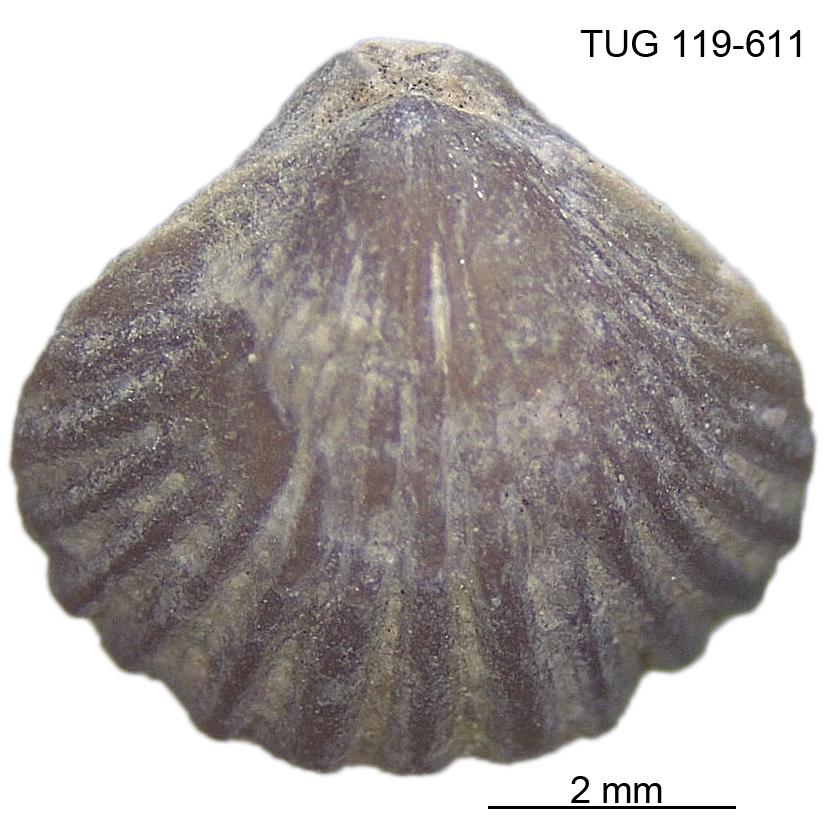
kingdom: Animalia
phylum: Brachiopoda
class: Rhynchonellata
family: Rhynchospirinidae
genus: Homoeospira
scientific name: Homoeospira Terebratula baylei
